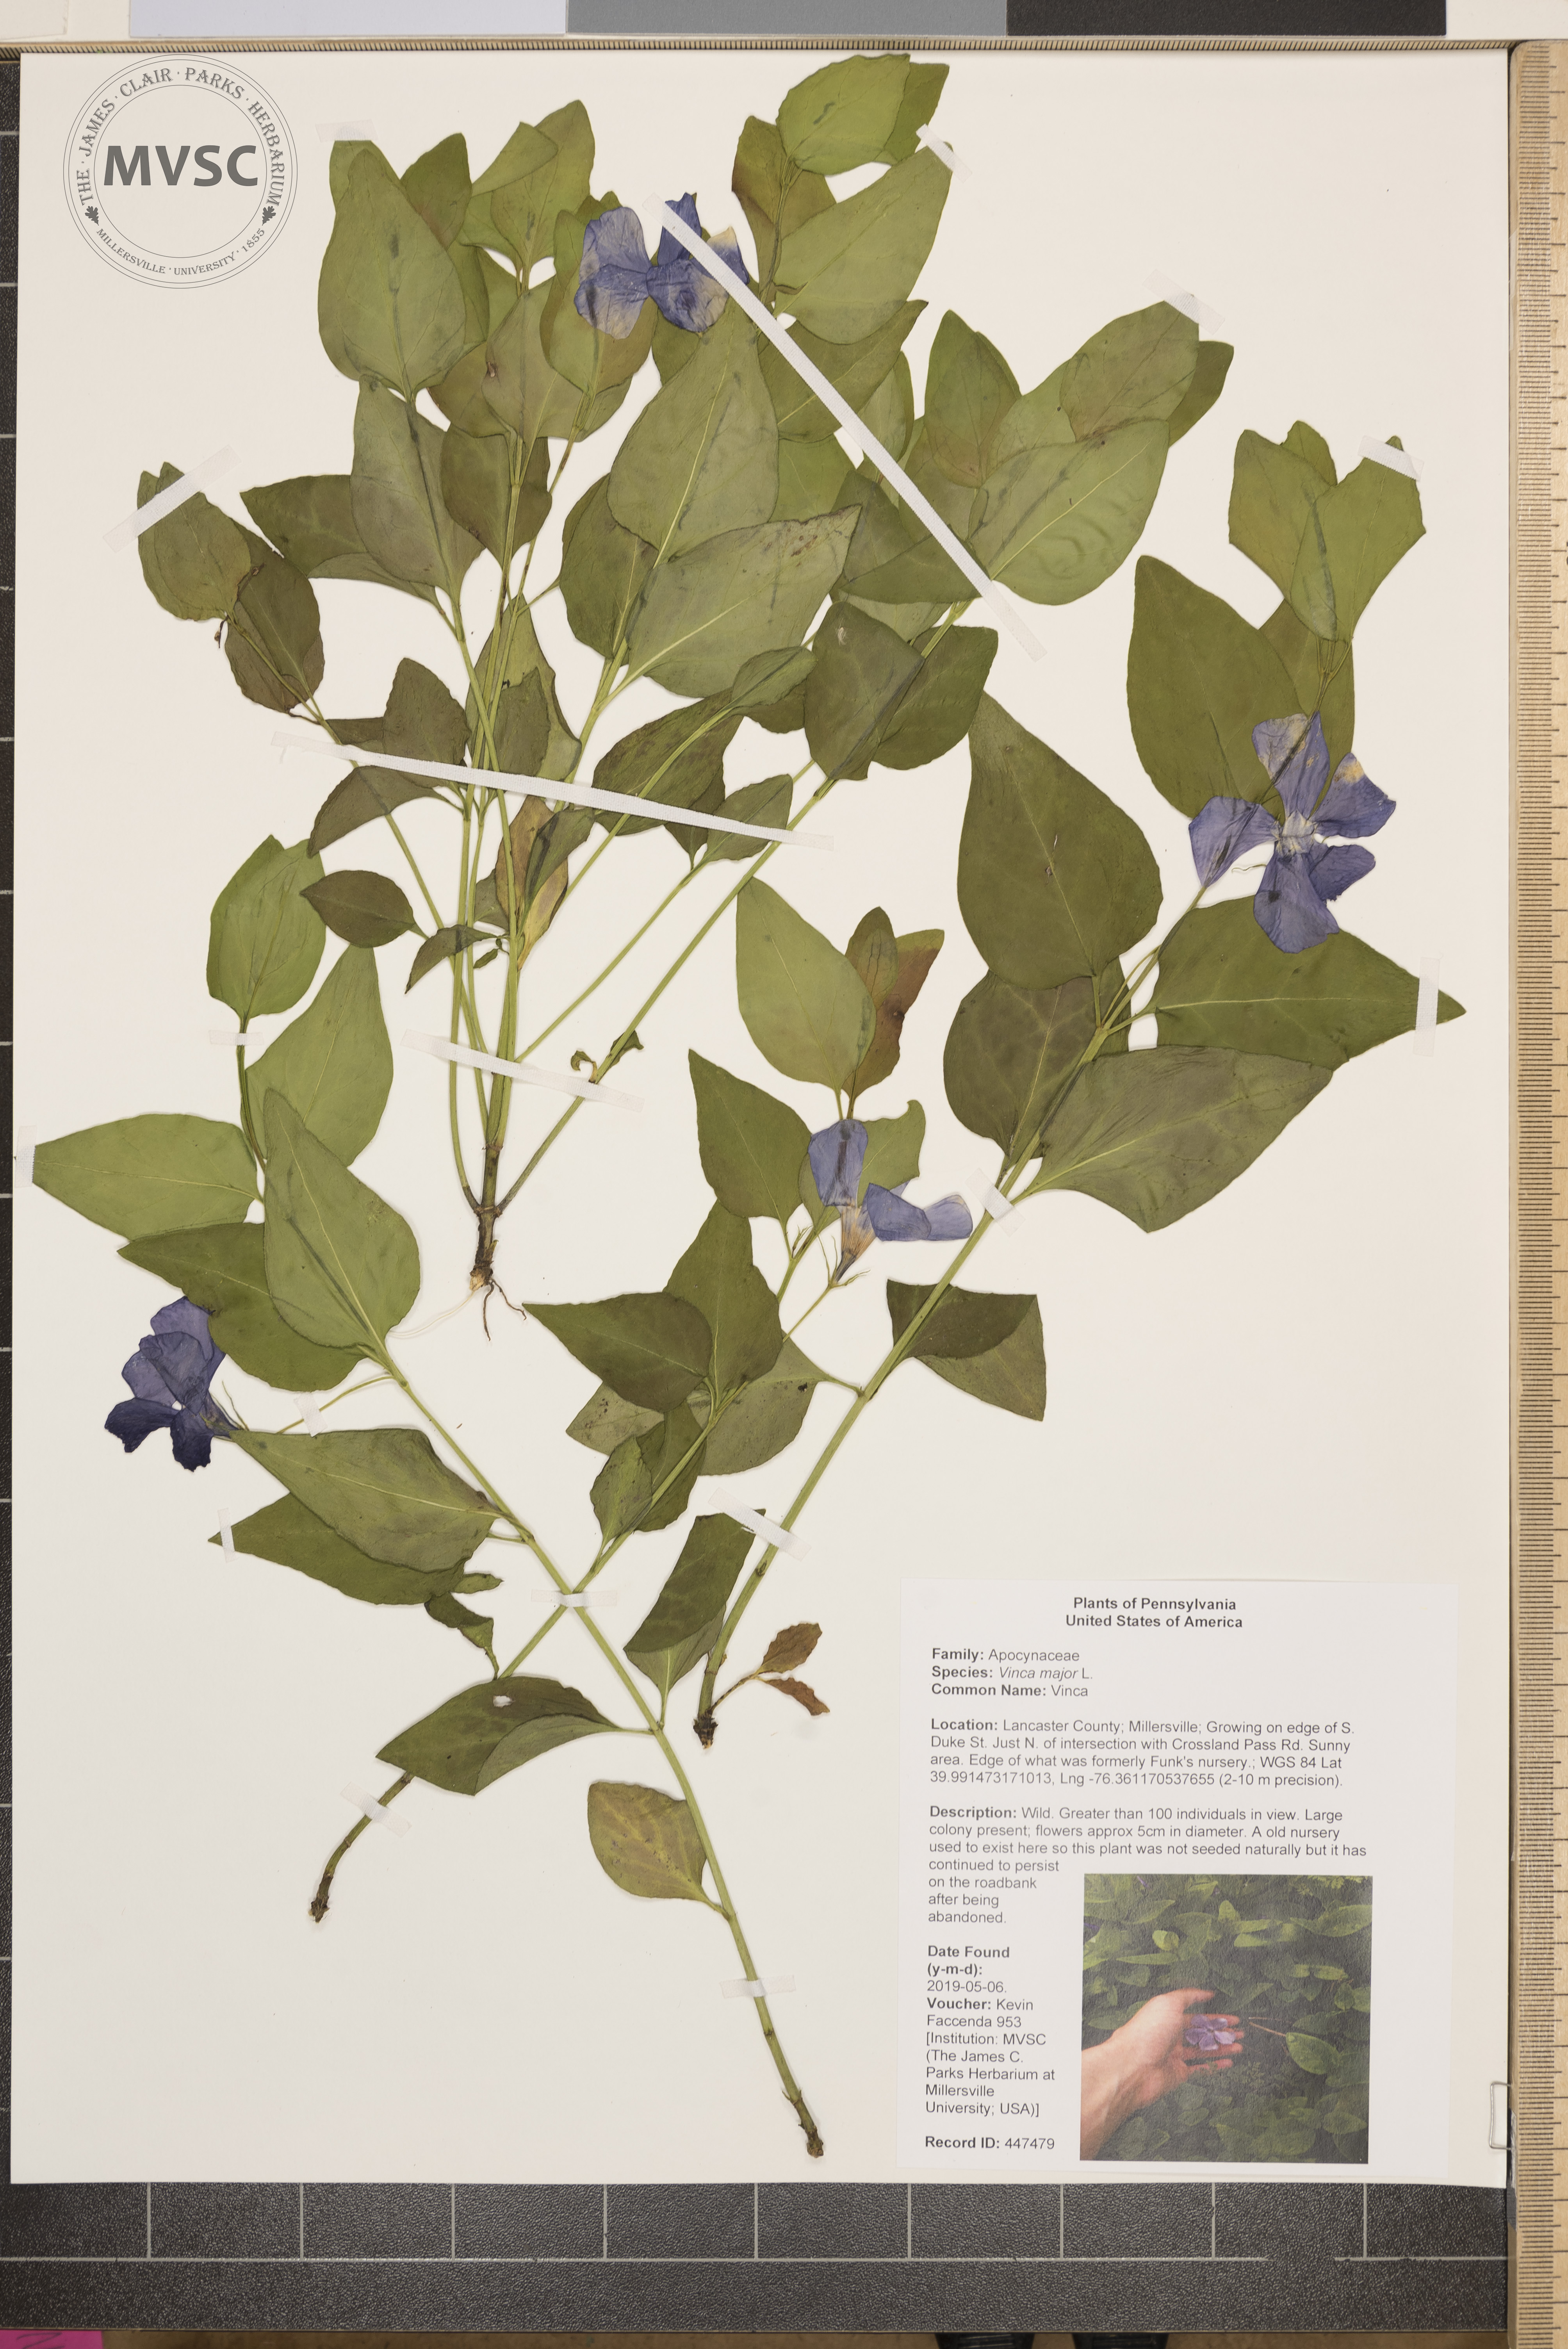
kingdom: Plantae
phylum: Tracheophyta
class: Magnoliopsida
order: Gentianales
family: Apocynaceae
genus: Vinca
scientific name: Vinca major
